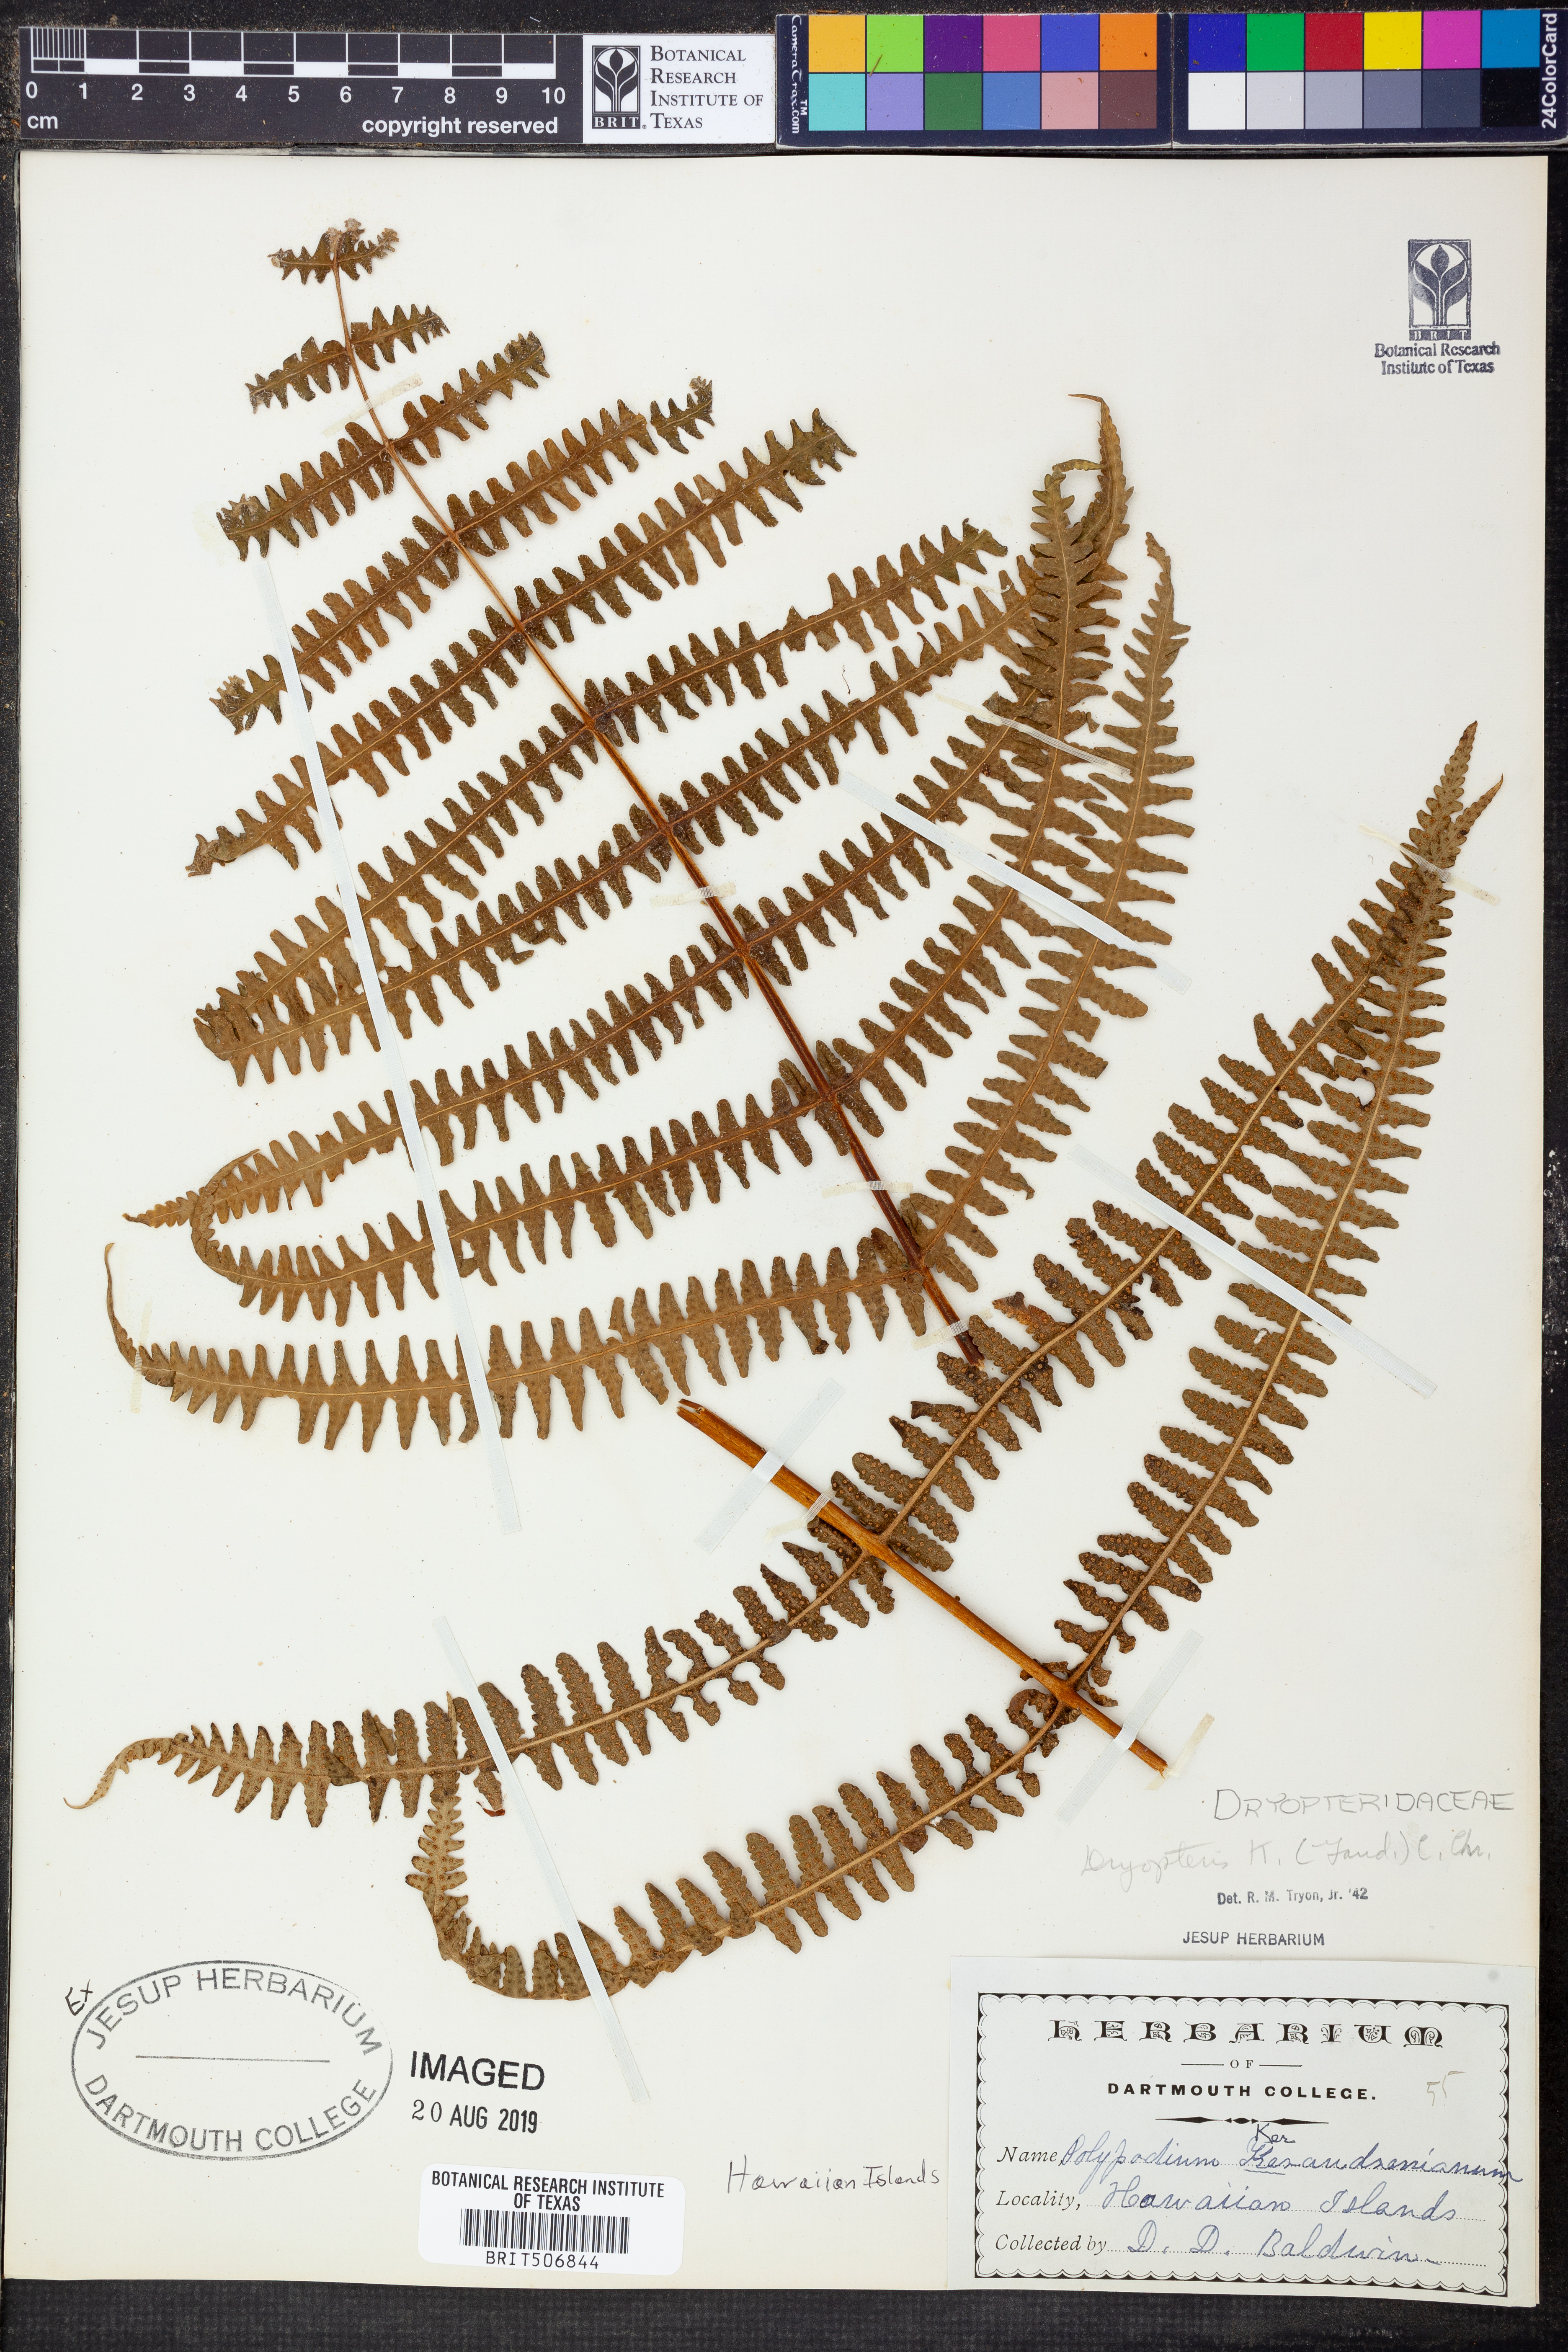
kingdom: Plantae
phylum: Tracheophyta
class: Polypodiopsida
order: Polypodiales
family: Thelypteridaceae
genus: Pseudophegopteris
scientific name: Pseudophegopteris keraudreniana
